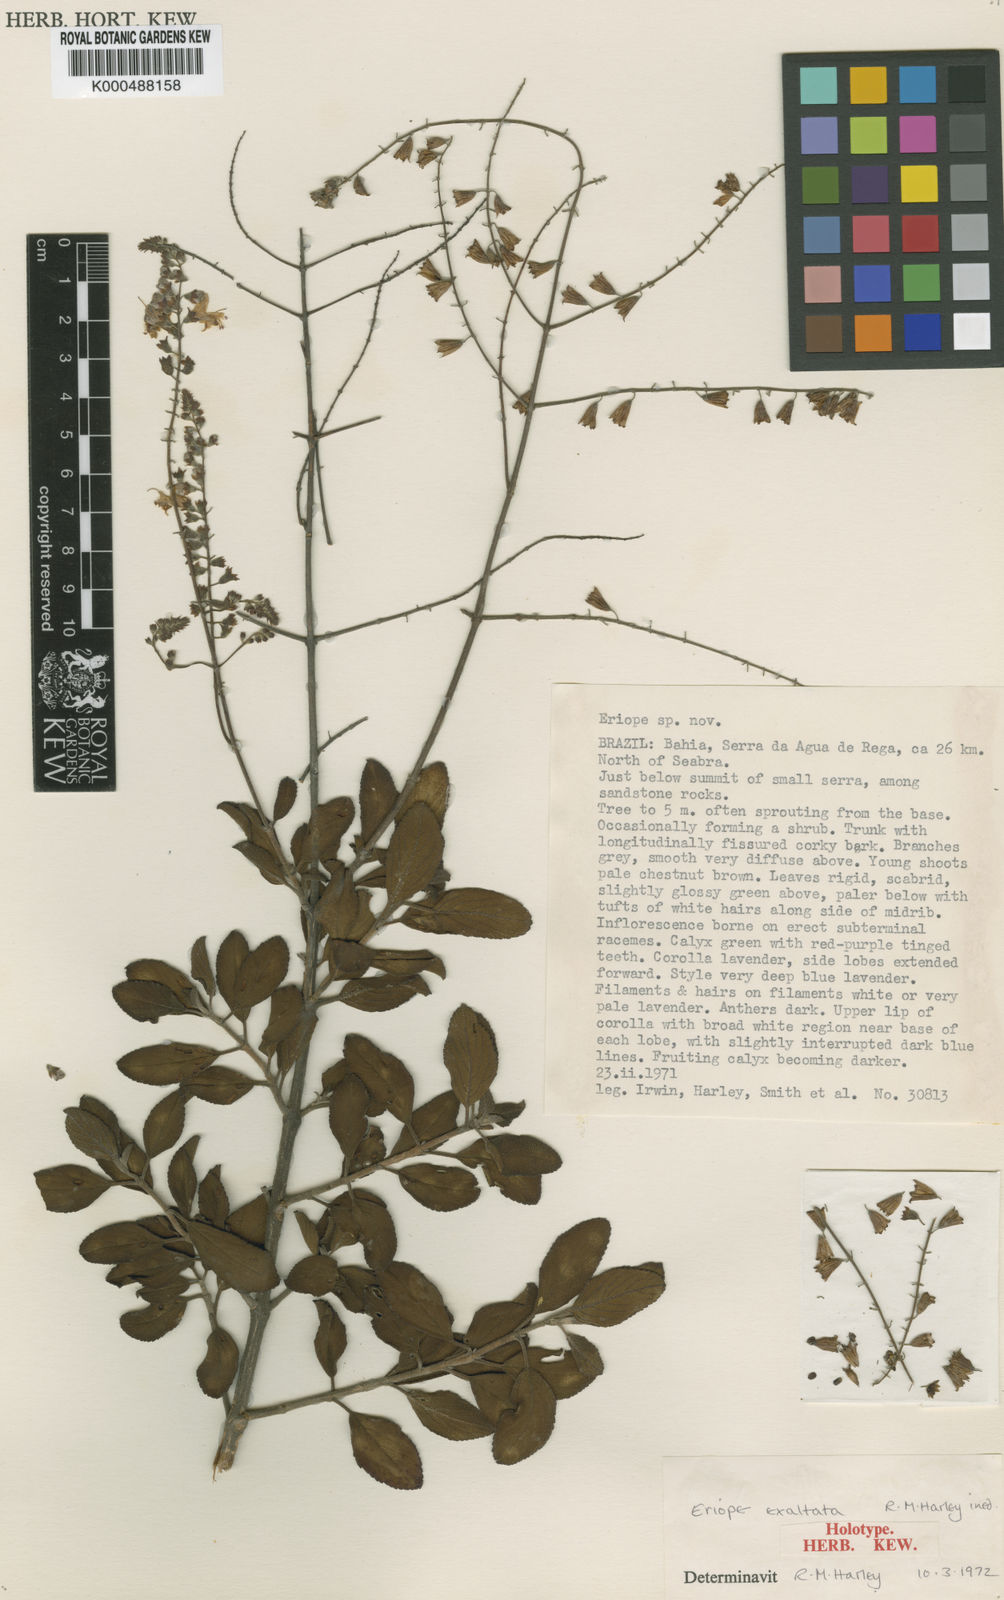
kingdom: Plantae
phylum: Tracheophyta
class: Magnoliopsida
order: Lamiales
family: Lamiaceae
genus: Eriope
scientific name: Eriope exaltata
